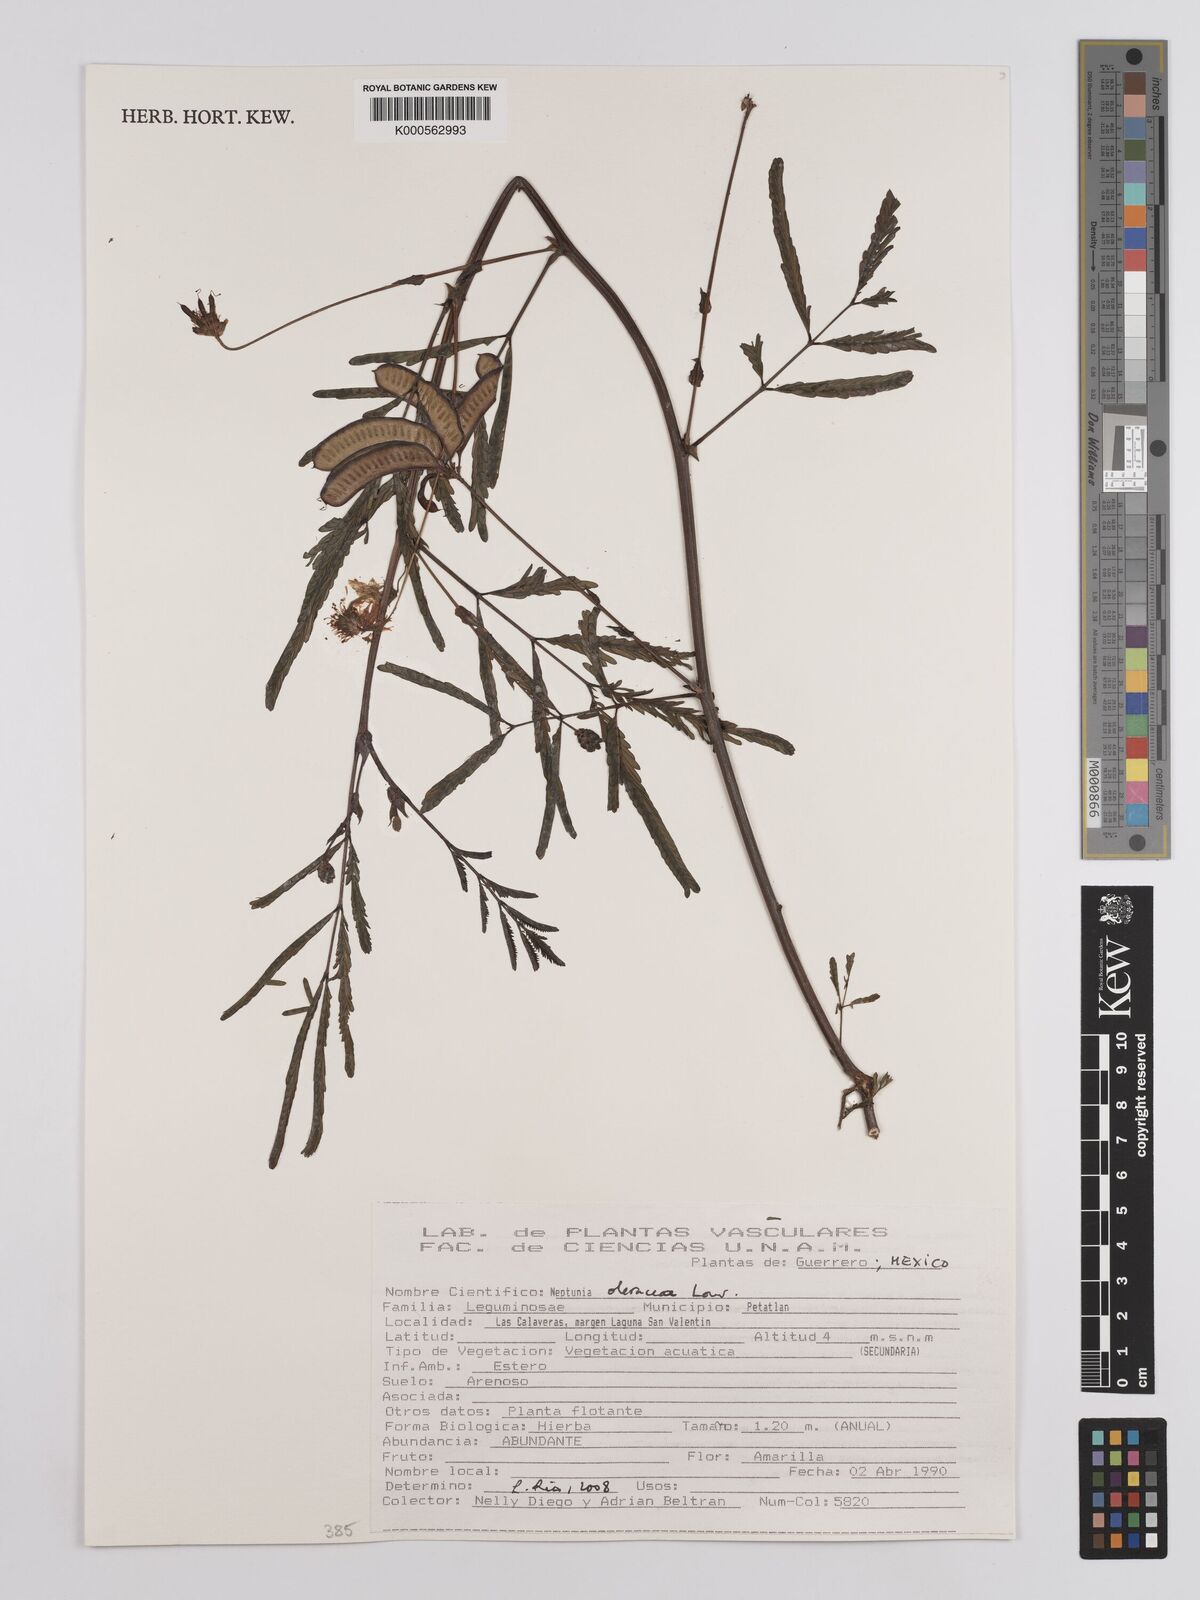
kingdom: Plantae
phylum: Tracheophyta
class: Magnoliopsida
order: Fabales
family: Fabaceae
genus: Neptunia
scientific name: Neptunia prostrata
